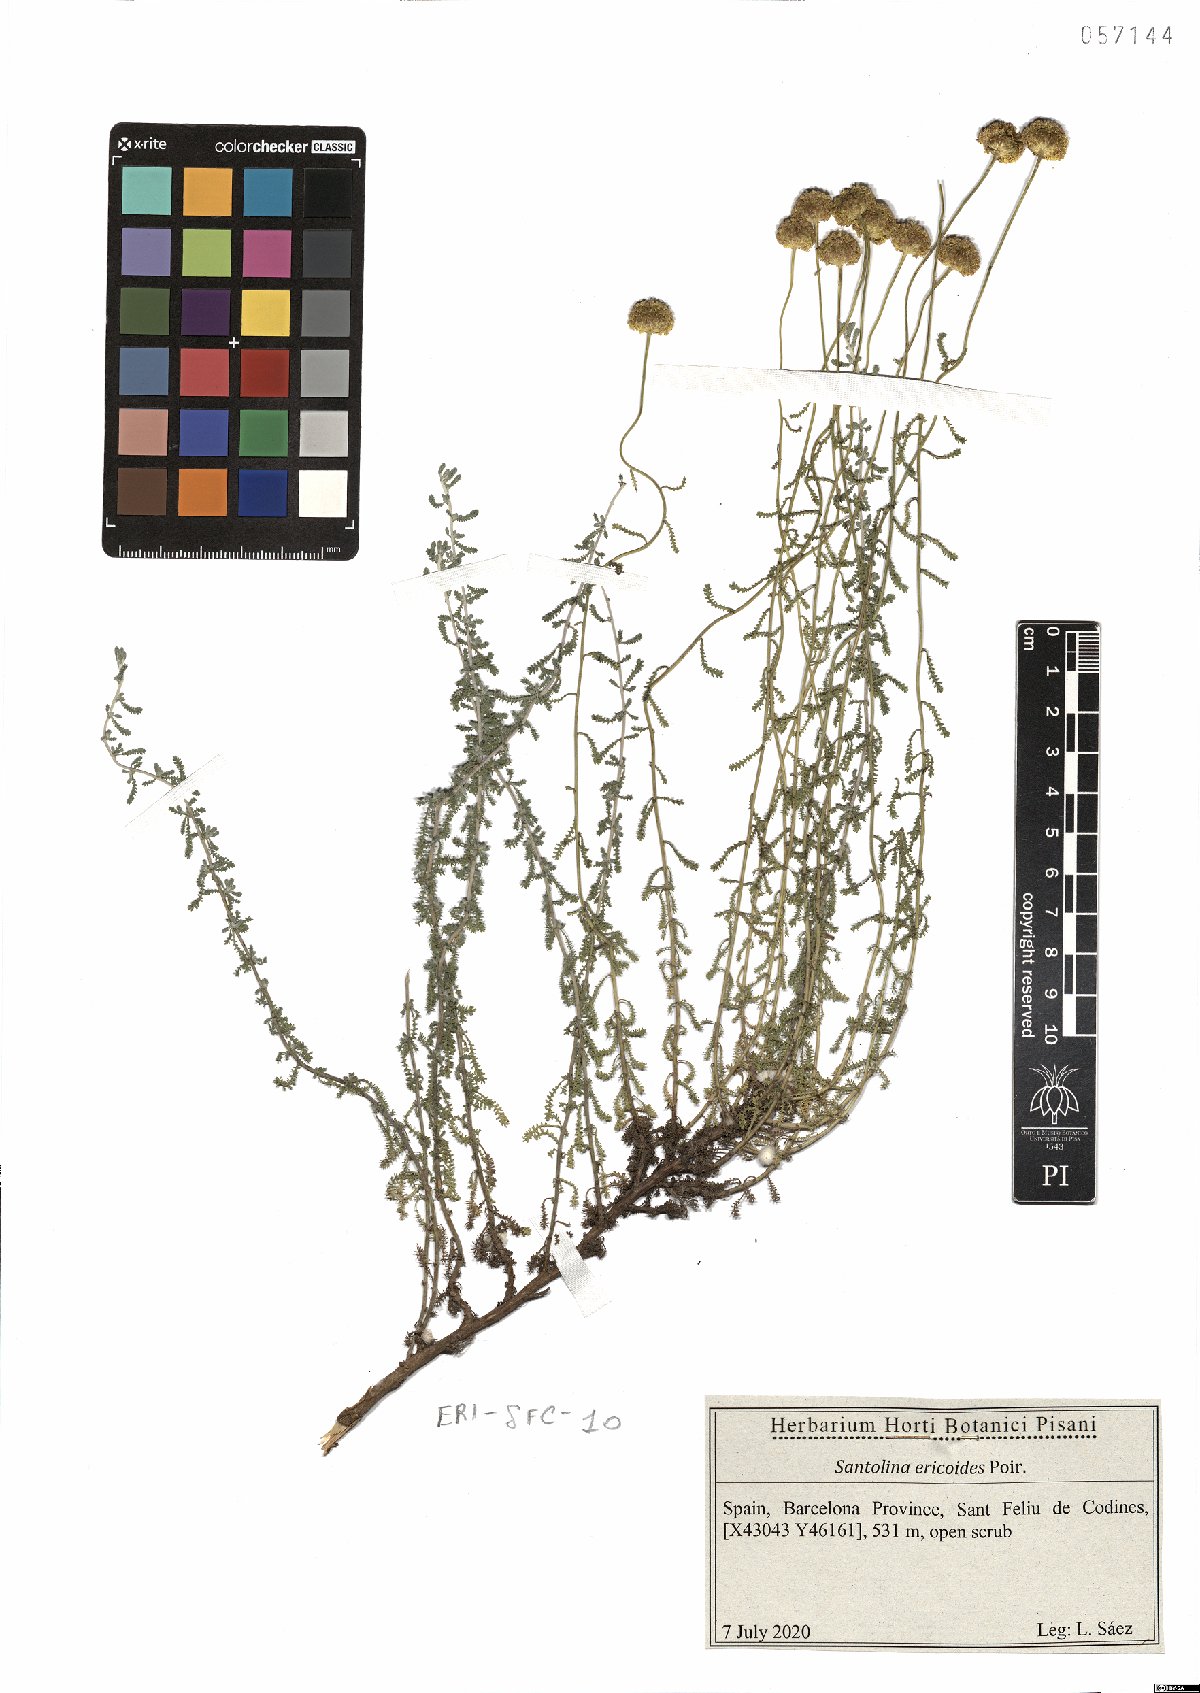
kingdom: Plantae
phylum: Tracheophyta
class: Magnoliopsida
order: Asterales
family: Asteraceae
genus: Santolina
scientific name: Santolina ericoides
